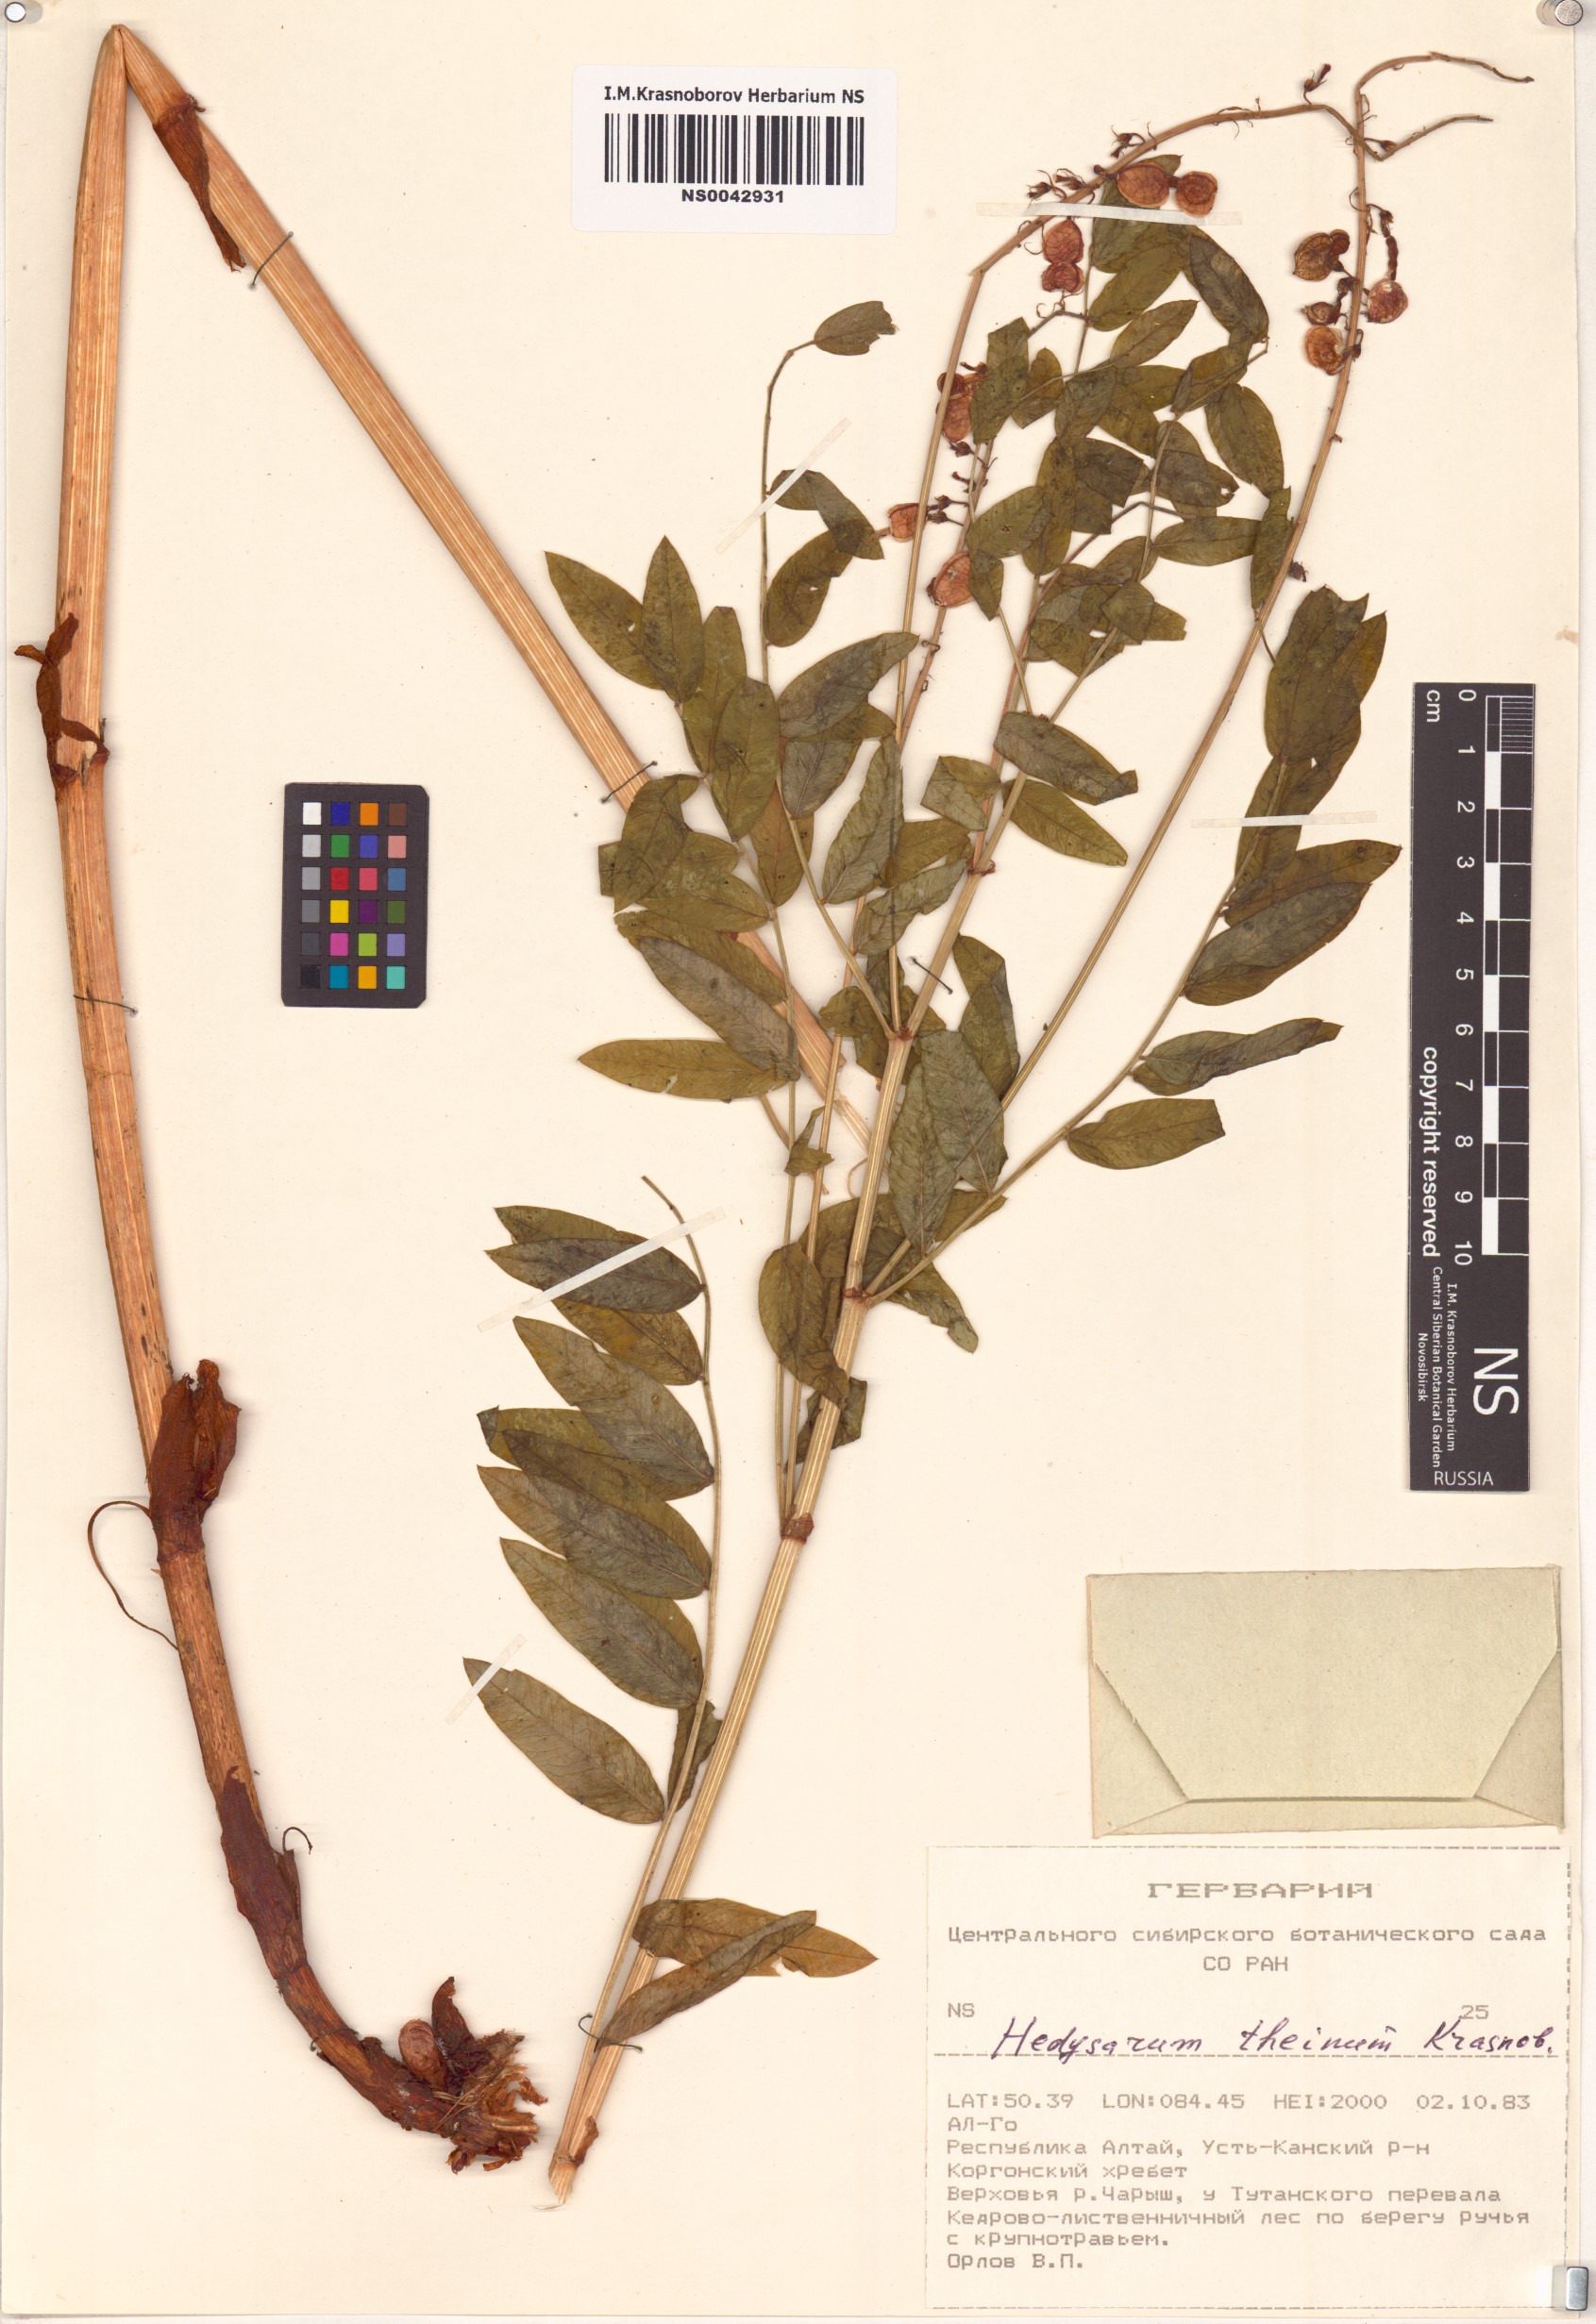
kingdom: Plantae
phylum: Tracheophyta
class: Magnoliopsida
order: Fabales
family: Fabaceae
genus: Hedysarum
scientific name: Hedysarum theinum
